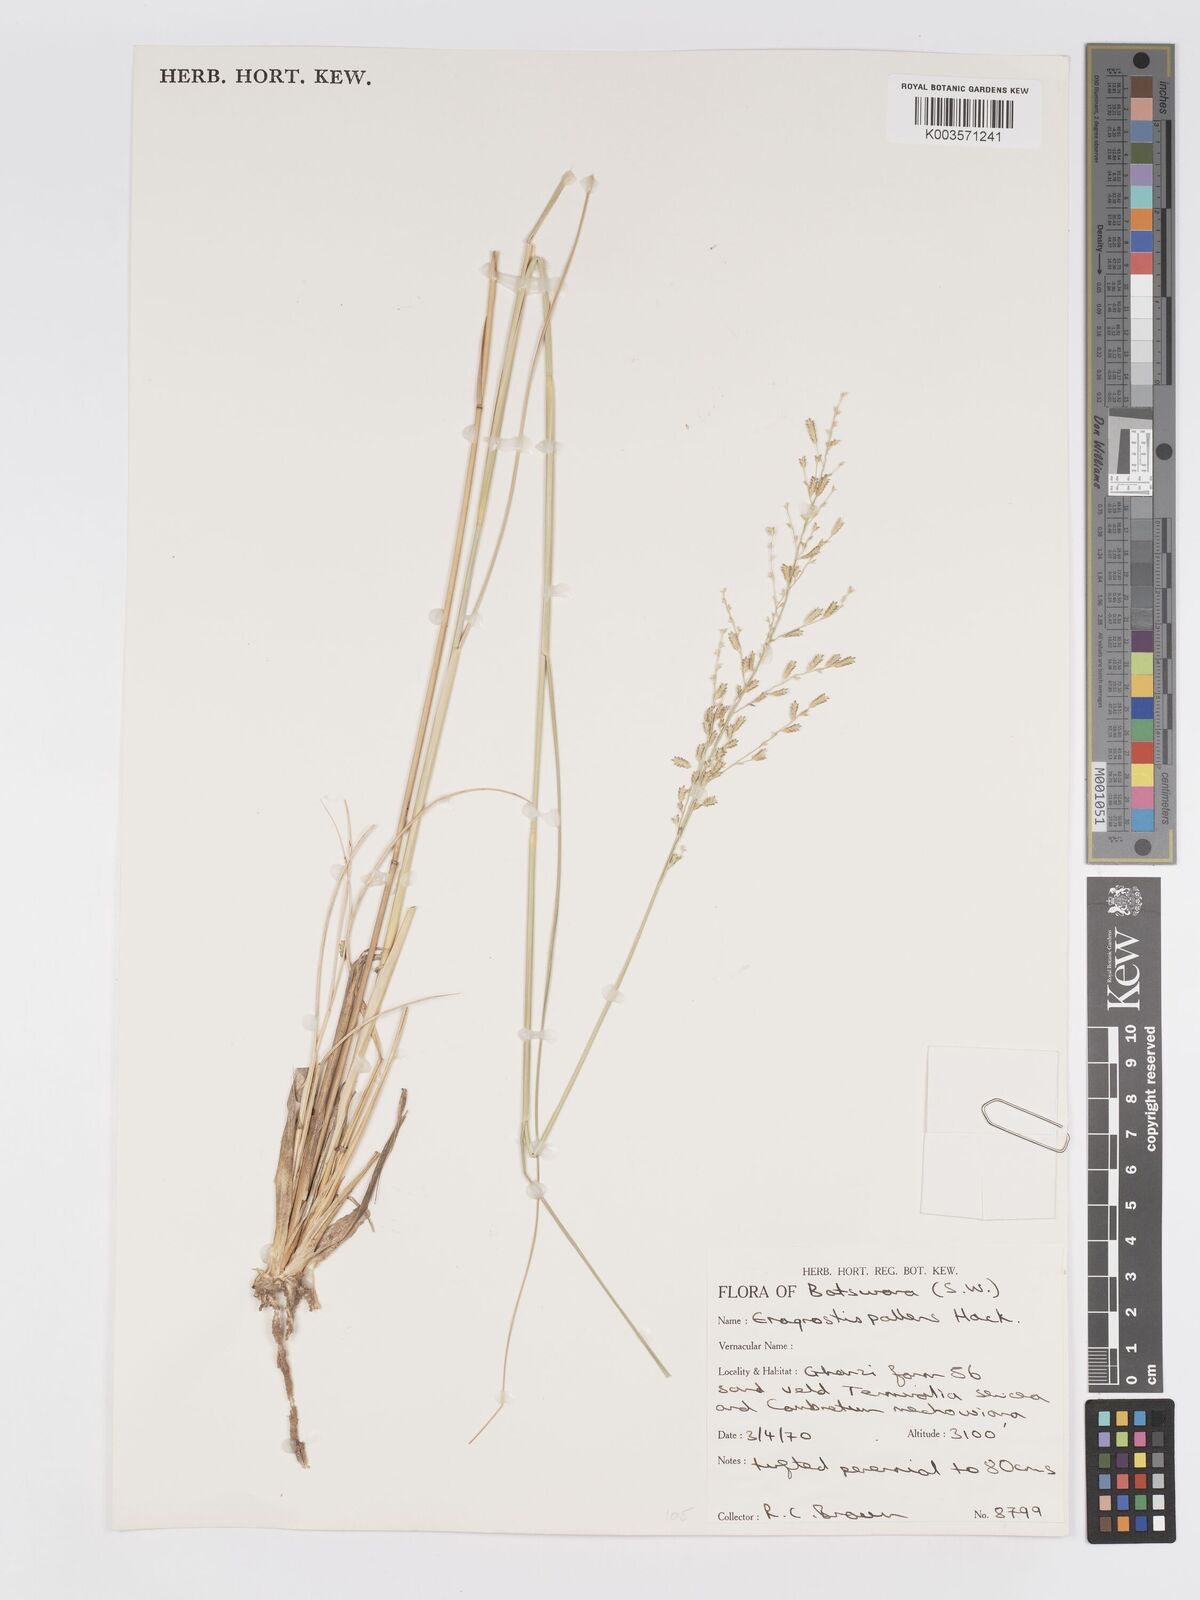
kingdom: Plantae
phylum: Tracheophyta
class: Liliopsida
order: Poales
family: Poaceae
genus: Eragrostis
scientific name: Eragrostis pallens
